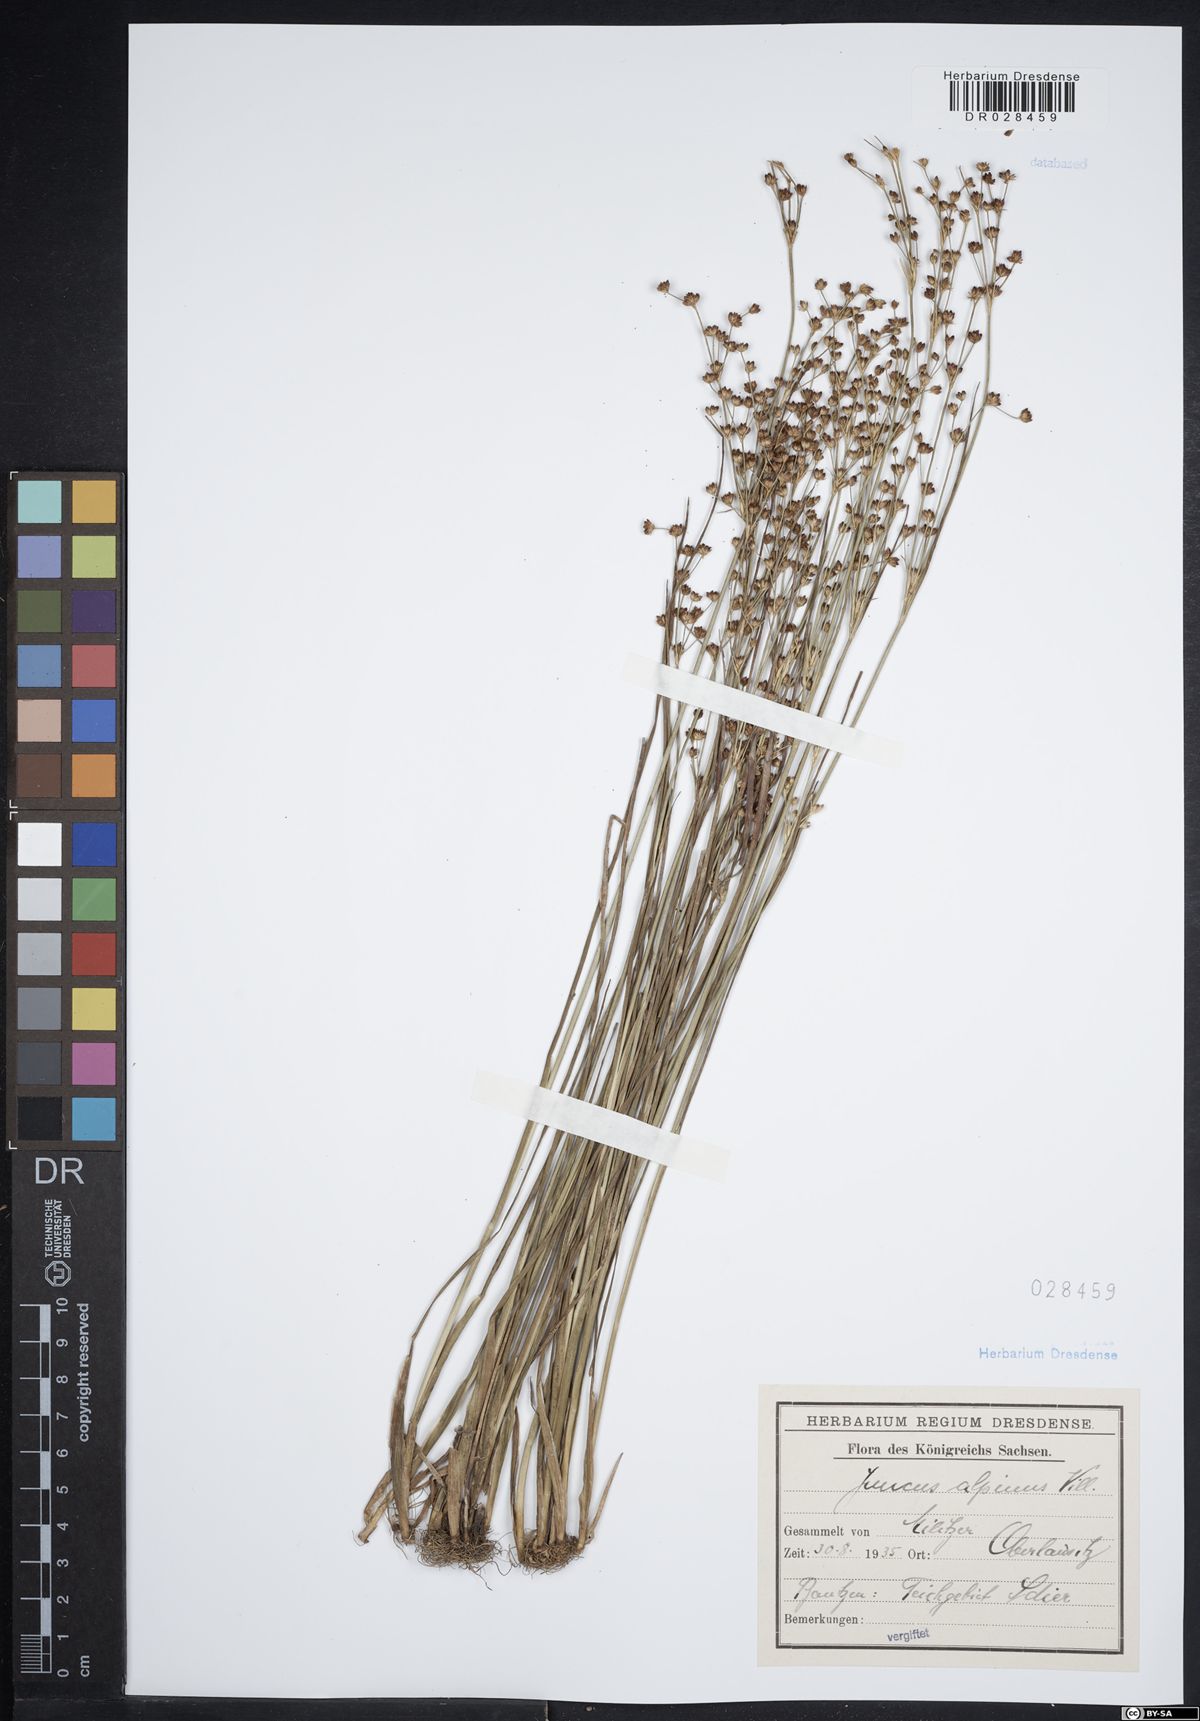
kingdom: Plantae
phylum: Tracheophyta
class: Liliopsida
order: Poales
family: Juncaceae
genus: Juncus
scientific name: Juncus alpinoarticulatus
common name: Alpine rush
